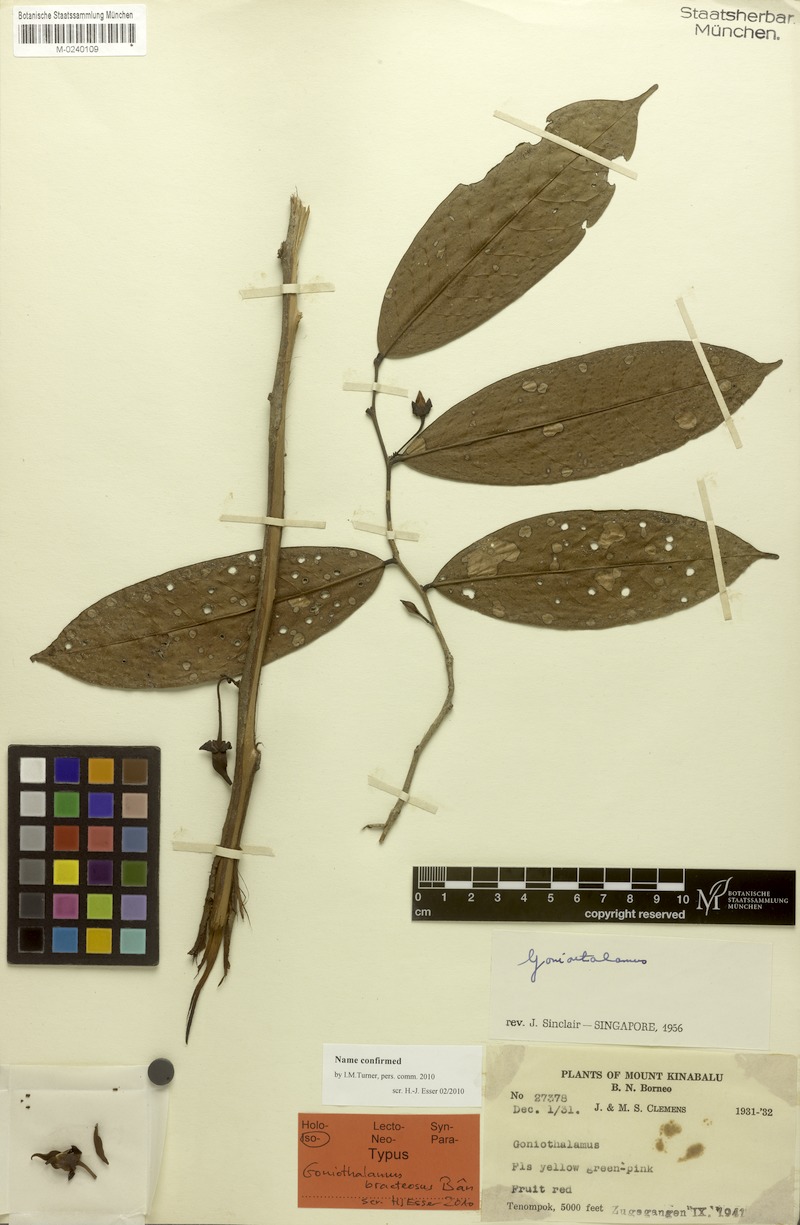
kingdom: Plantae
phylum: Tracheophyta
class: Magnoliopsida
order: Magnoliales
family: Annonaceae
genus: Goniothalamus
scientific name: Goniothalamus bracteosus
